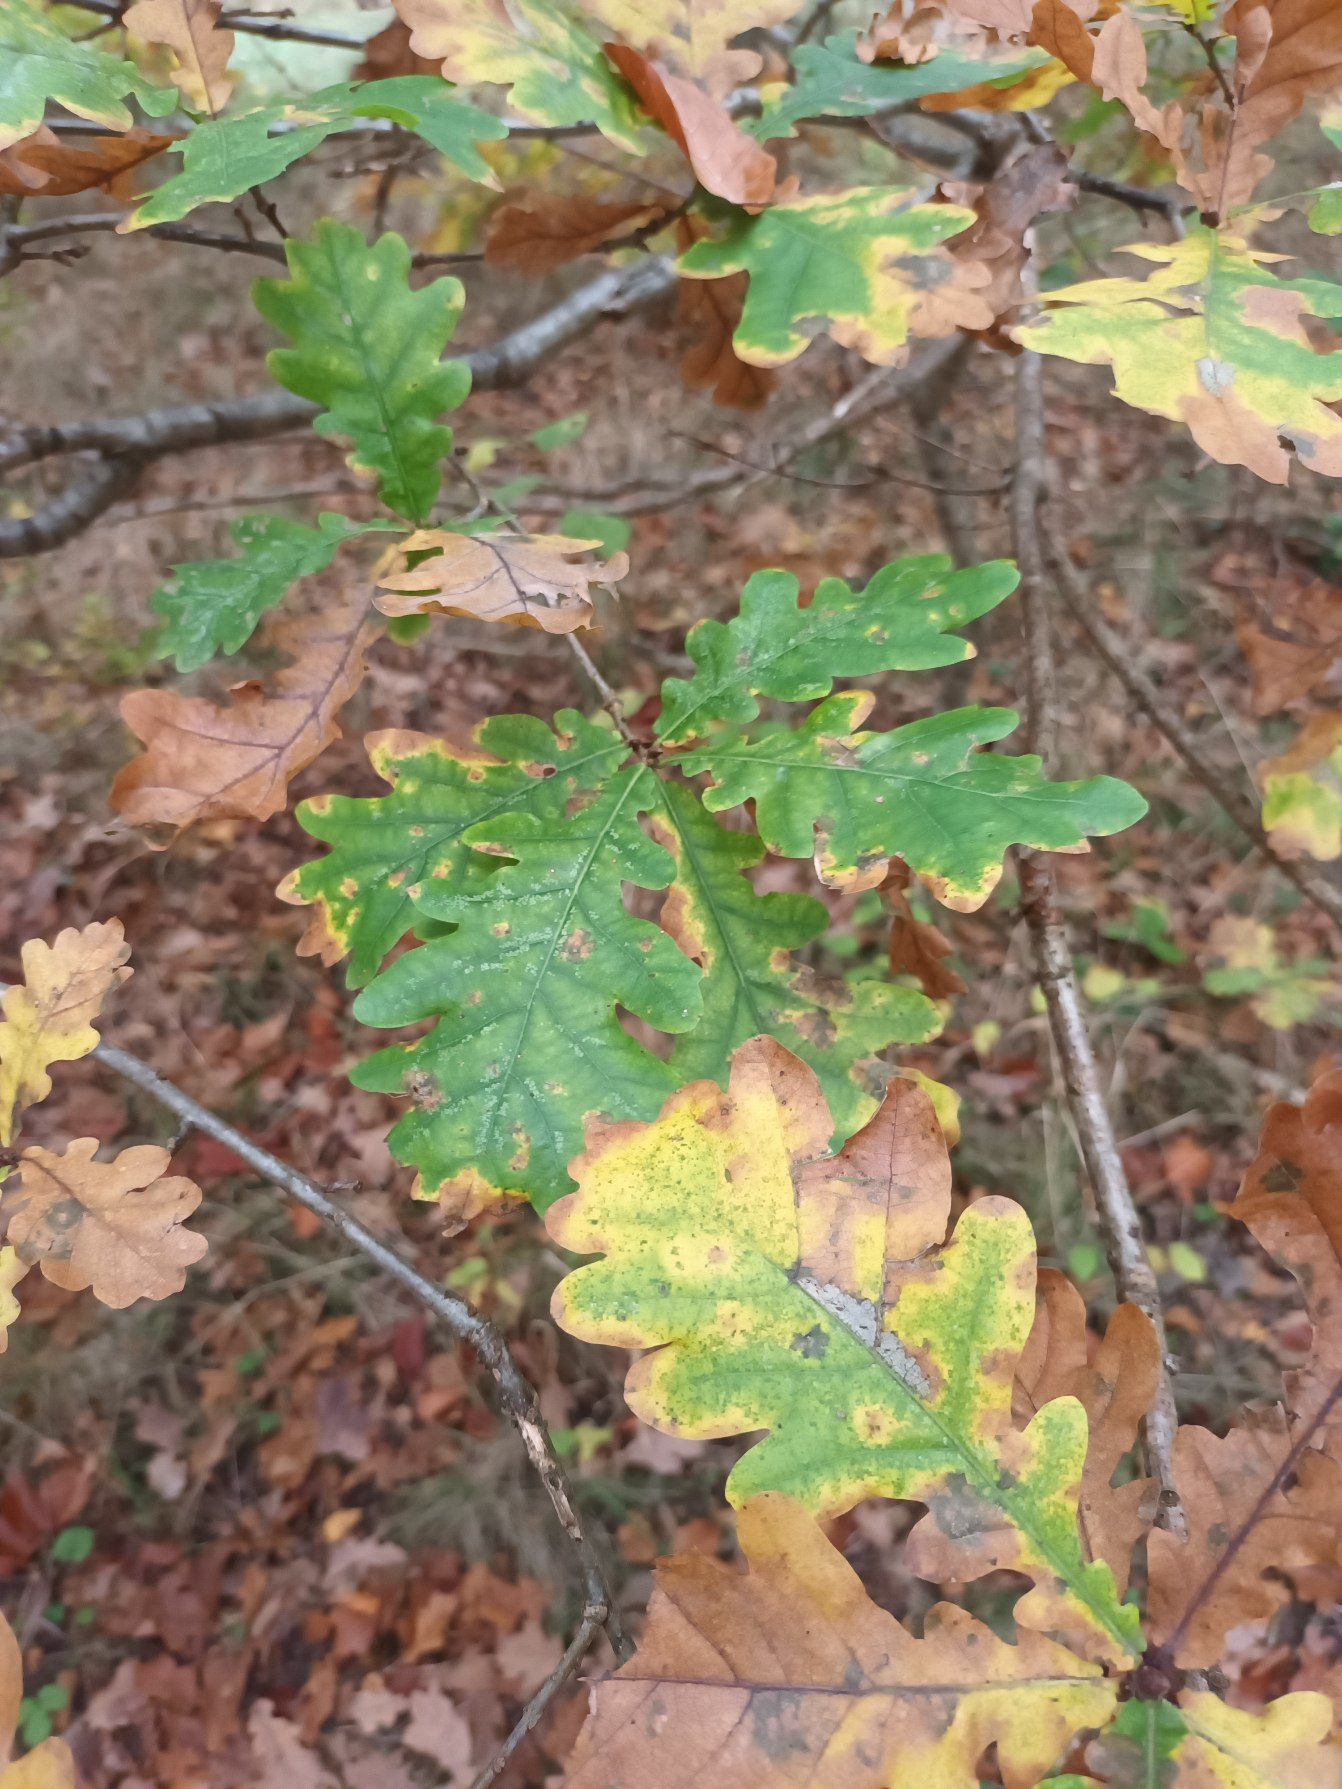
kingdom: Plantae
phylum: Tracheophyta
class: Magnoliopsida
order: Fagales
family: Fagaceae
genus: Quercus
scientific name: Quercus robur
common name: Stilk-eg/almindelig eg
